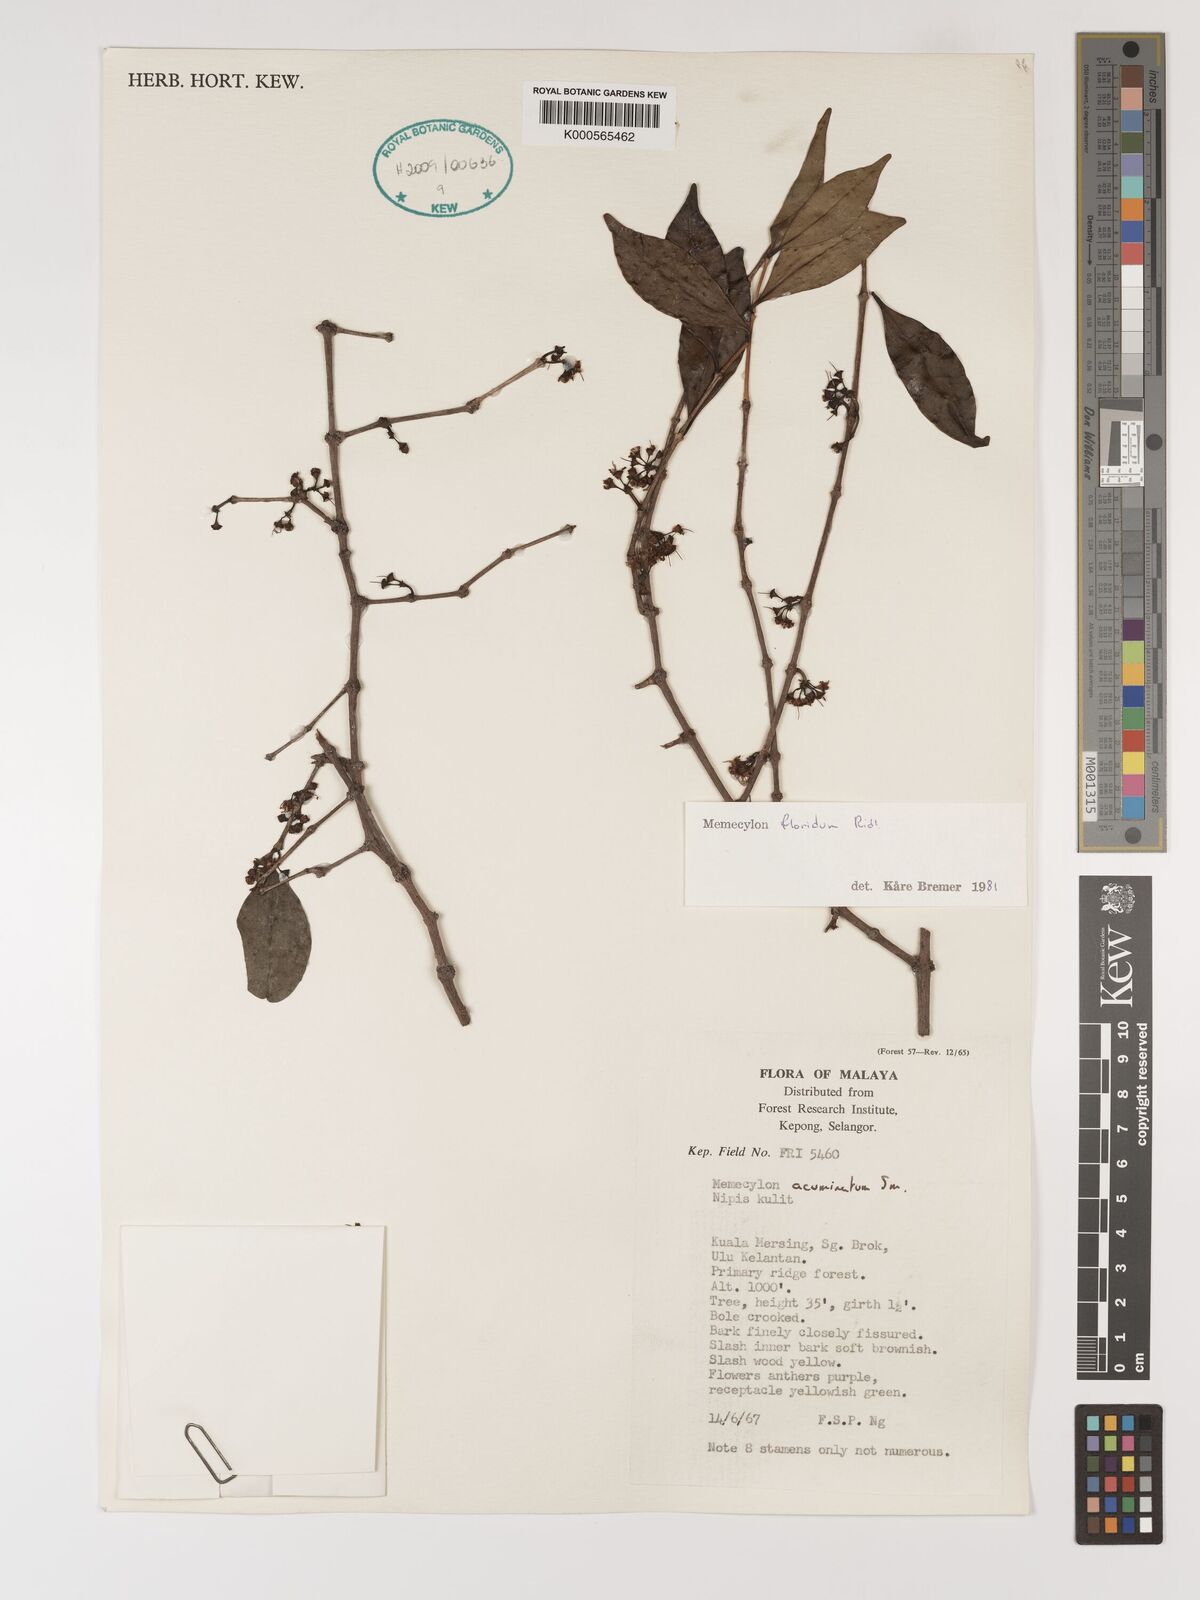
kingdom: Plantae
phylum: Tracheophyta
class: Magnoliopsida
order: Myrtales
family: Melastomataceae
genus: Memecylon
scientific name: Memecylon floridum
